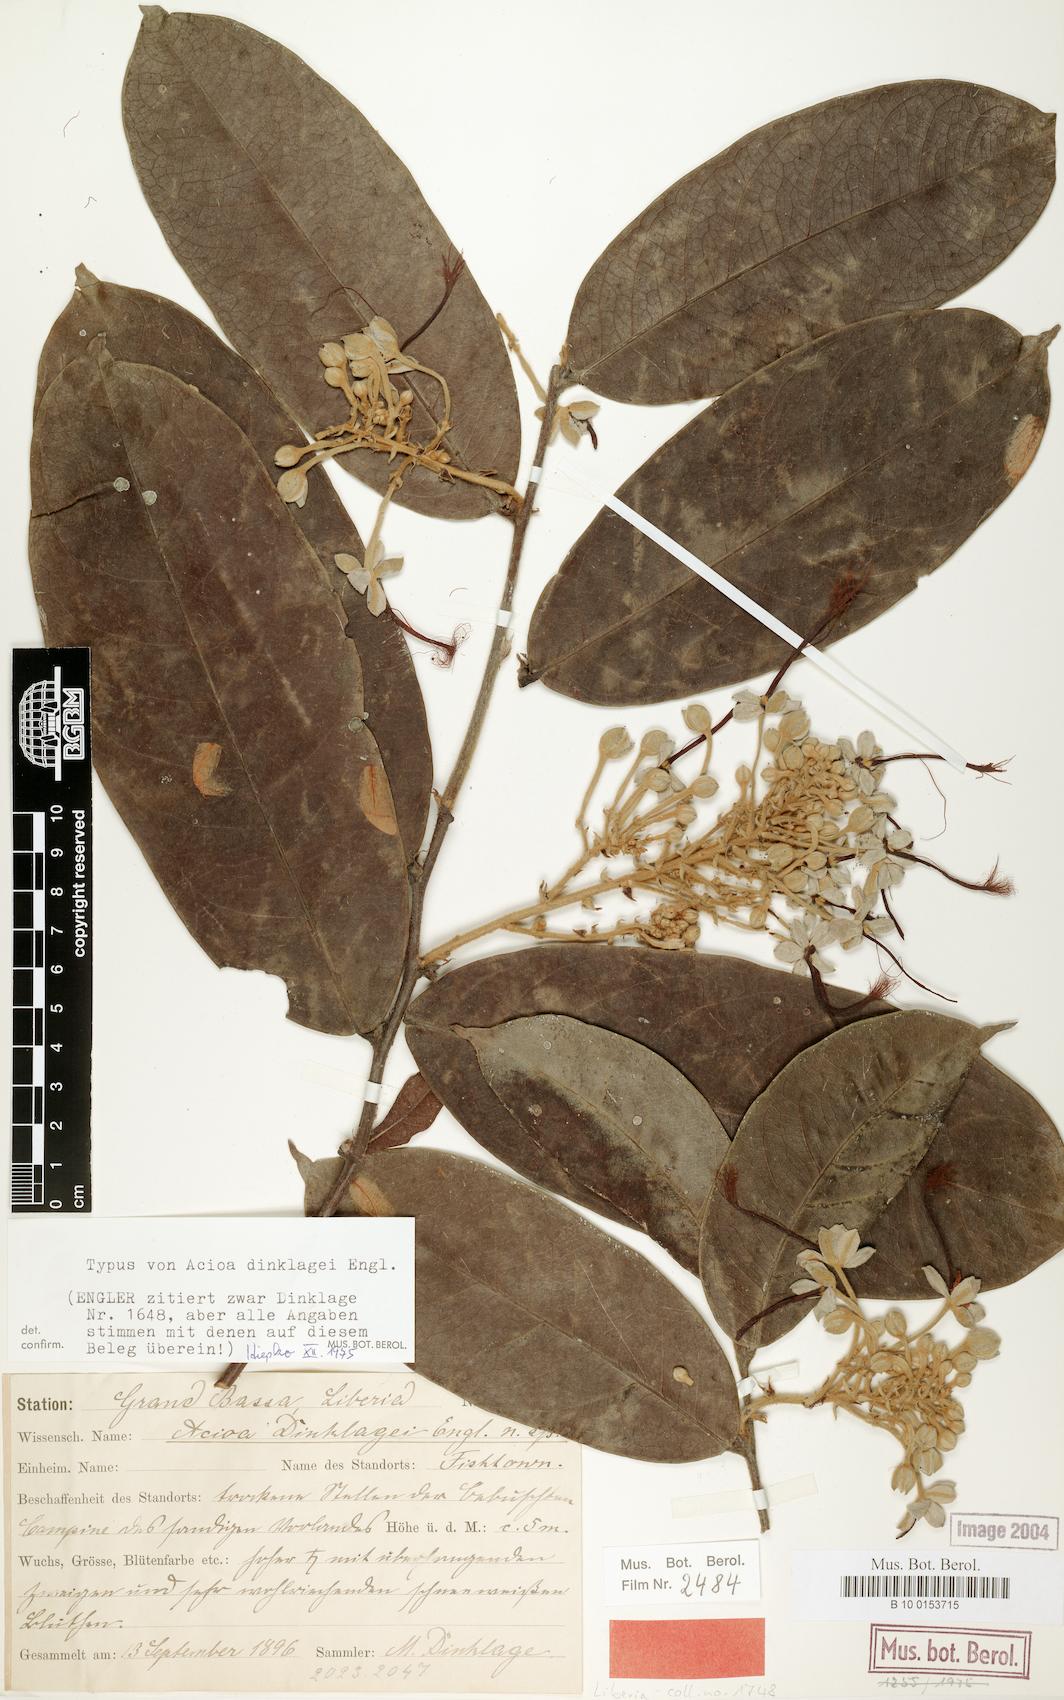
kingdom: Plantae
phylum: Tracheophyta
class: Magnoliopsida
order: Malpighiales
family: Chrysobalanaceae
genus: Dactyladenia
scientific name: Dactyladenia dinklagei
